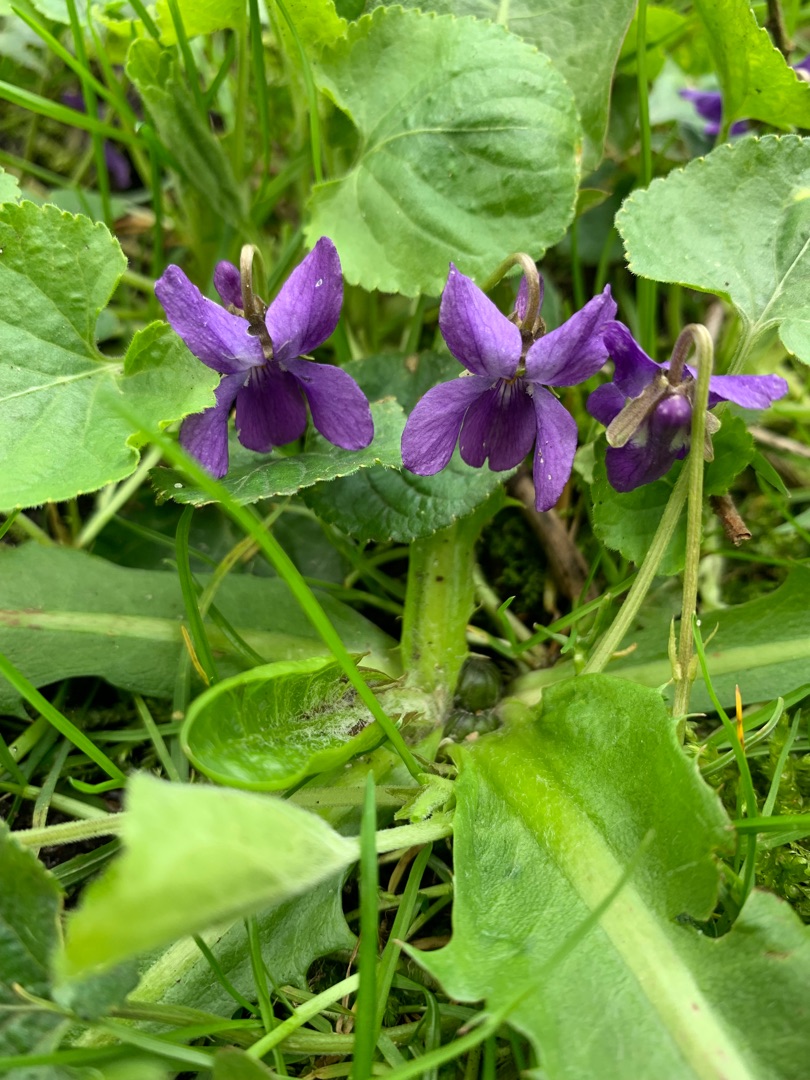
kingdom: Plantae
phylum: Tracheophyta
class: Magnoliopsida
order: Malpighiales
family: Violaceae
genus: Viola
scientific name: Viola odorata
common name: Marts-viol
